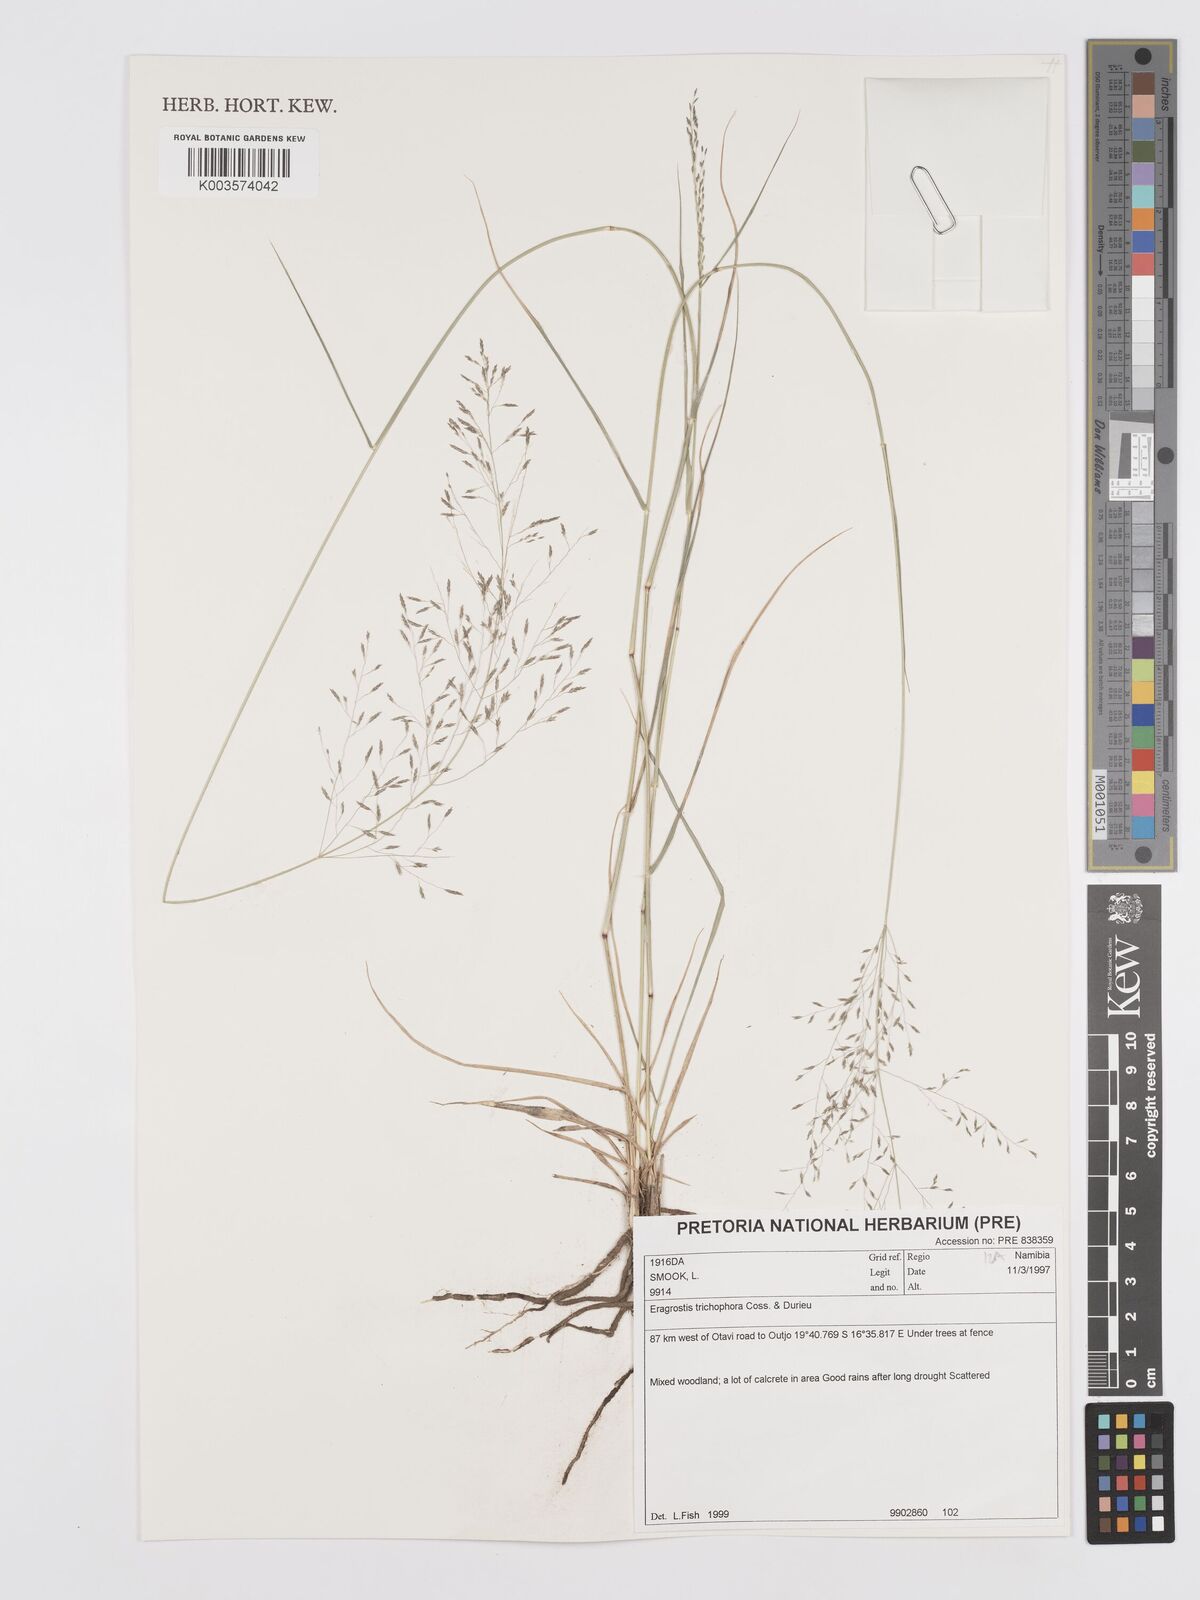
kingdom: Plantae
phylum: Tracheophyta
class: Liliopsida
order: Poales
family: Poaceae
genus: Eragrostis
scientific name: Eragrostis cylindriflora
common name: Cylinderflower lovegrass
